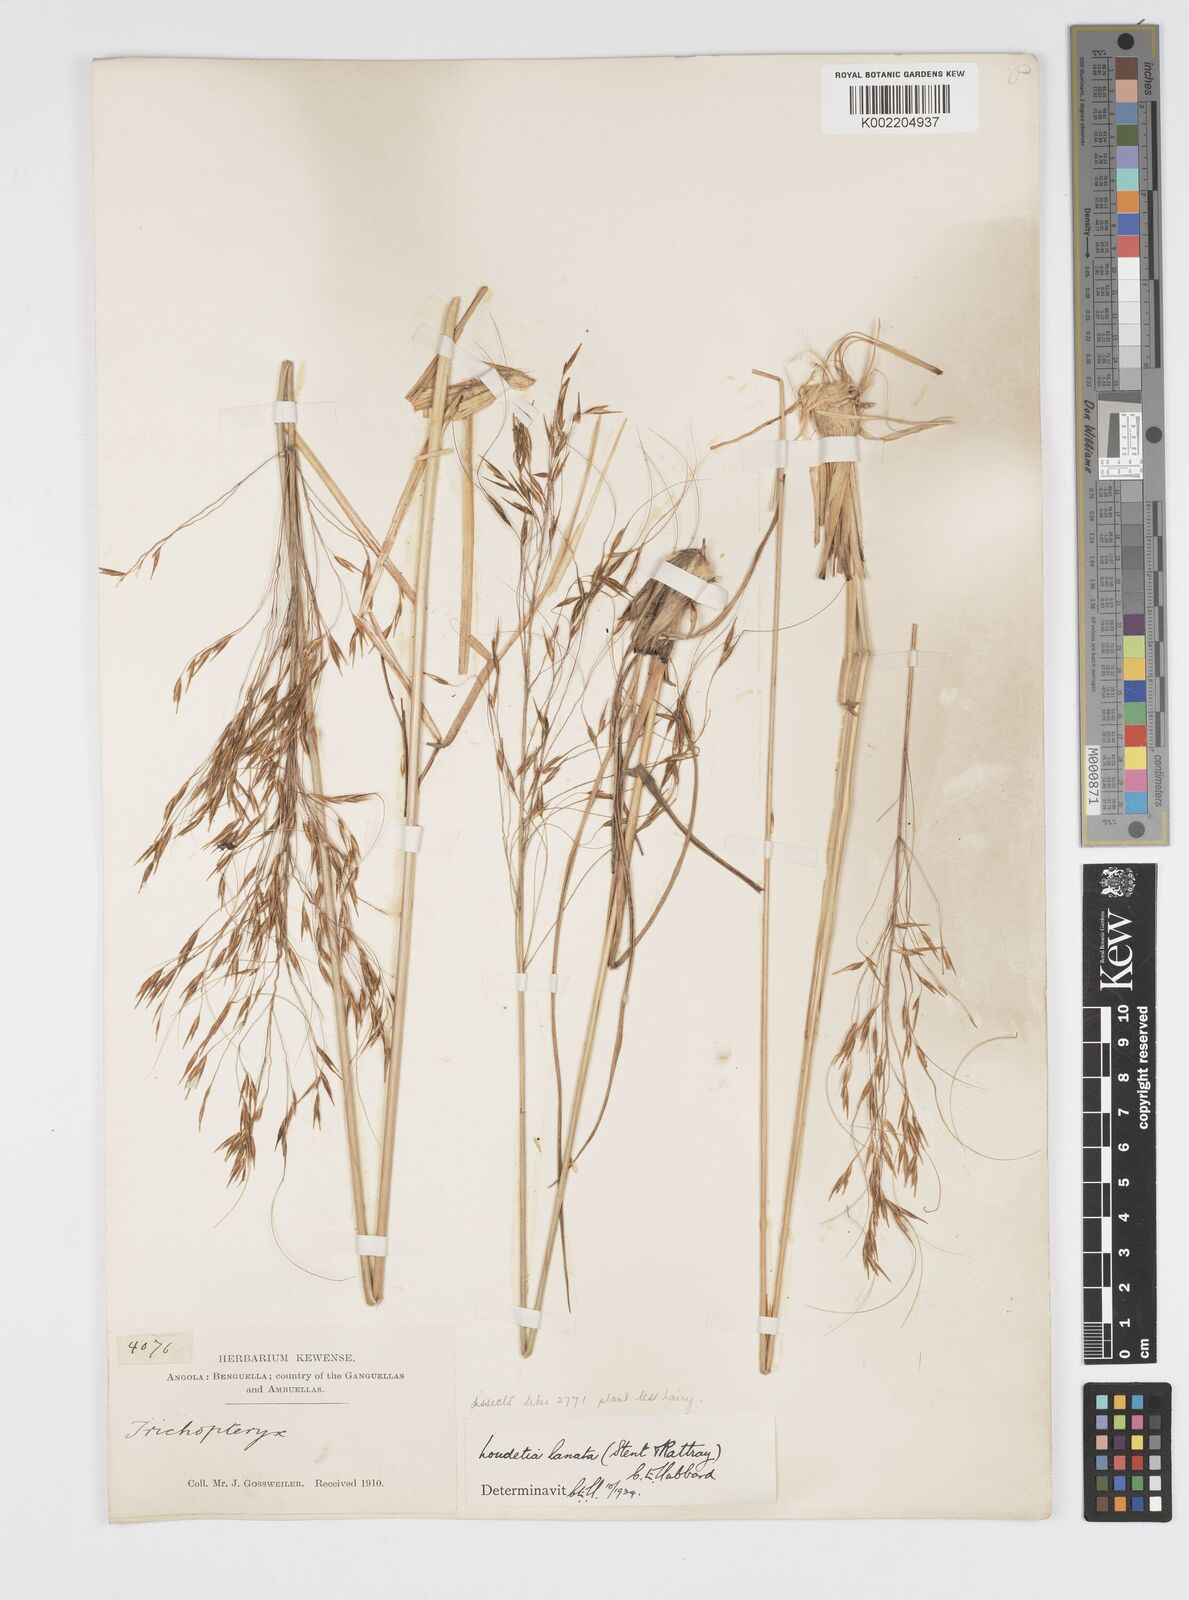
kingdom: Plantae
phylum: Tracheophyta
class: Liliopsida
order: Poales
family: Poaceae
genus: Loudetia
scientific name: Loudetia lanata
